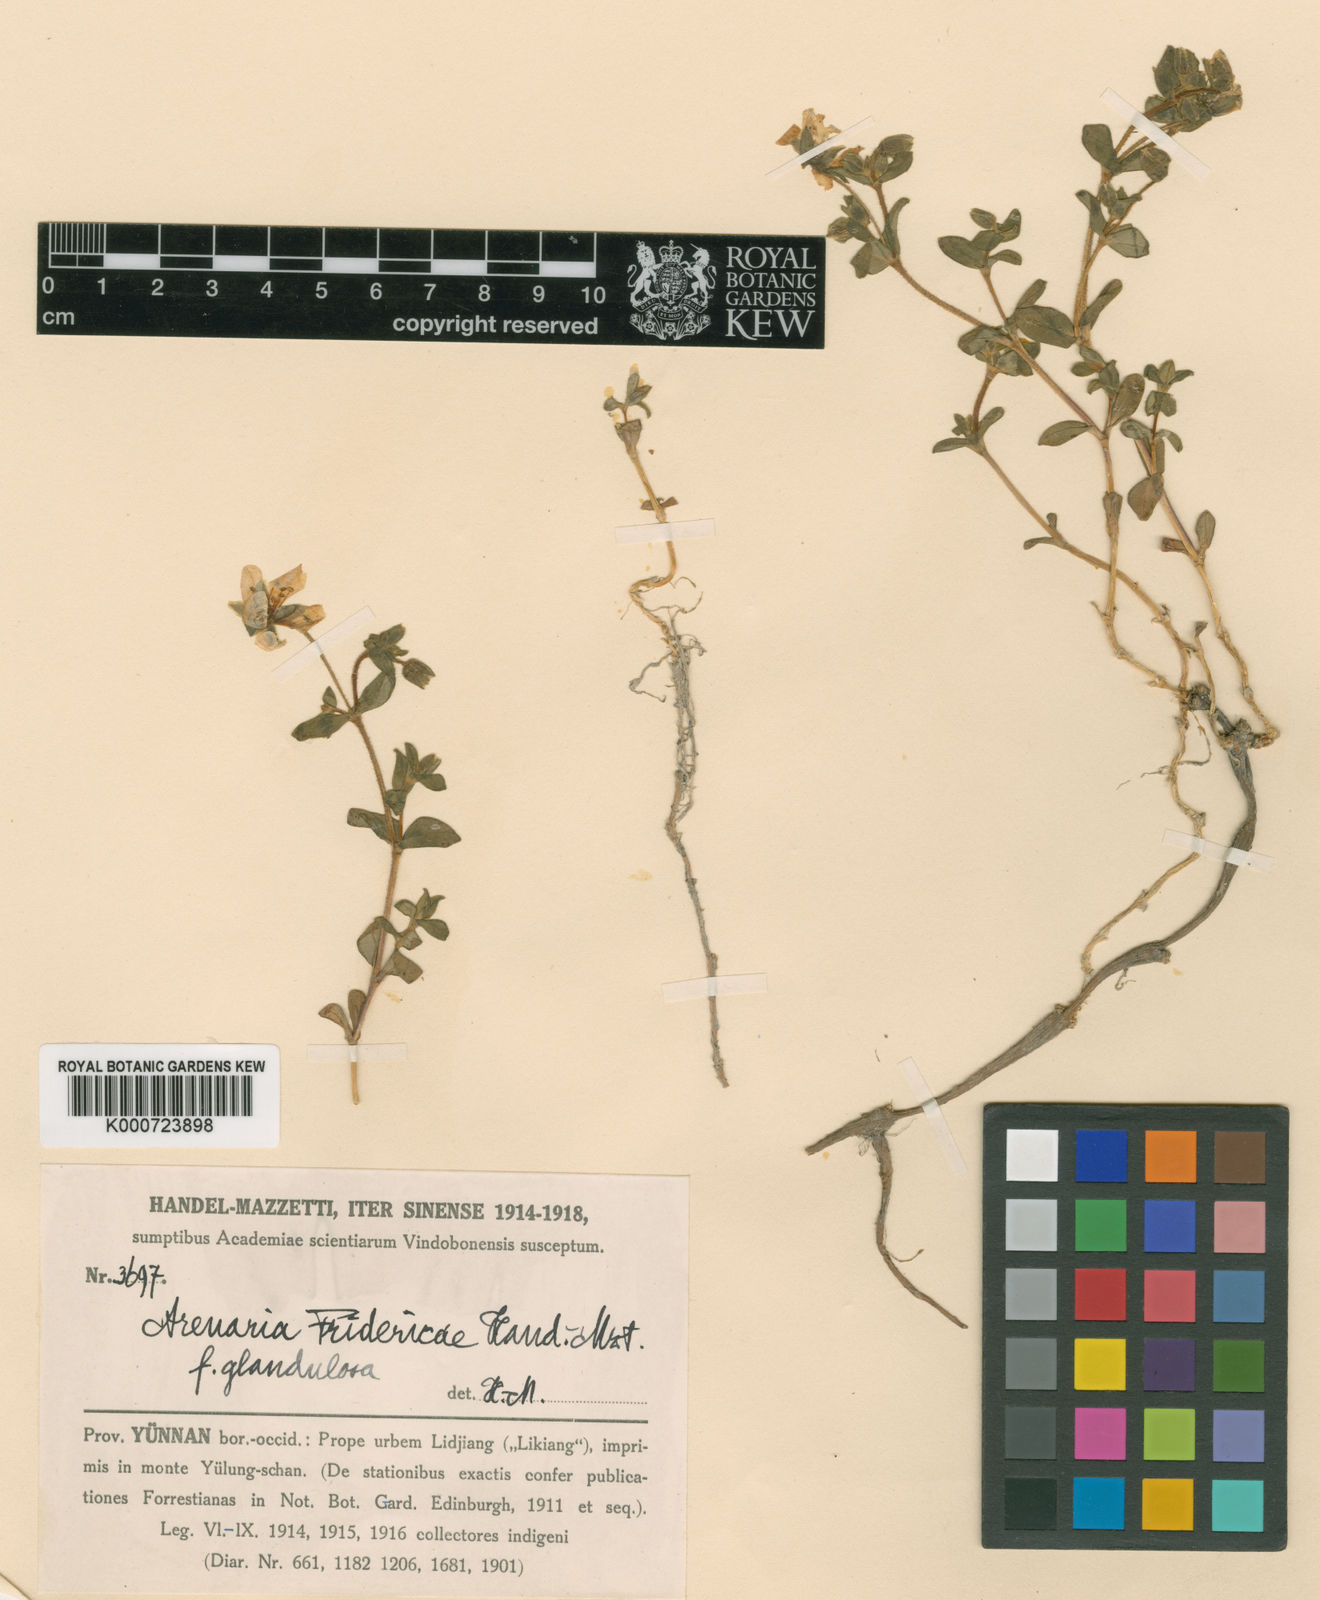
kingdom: Plantae
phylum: Tracheophyta
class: Magnoliopsida
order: Caryophyllales
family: Caryophyllaceae
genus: Odontostemma
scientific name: Odontostemma fridericae
